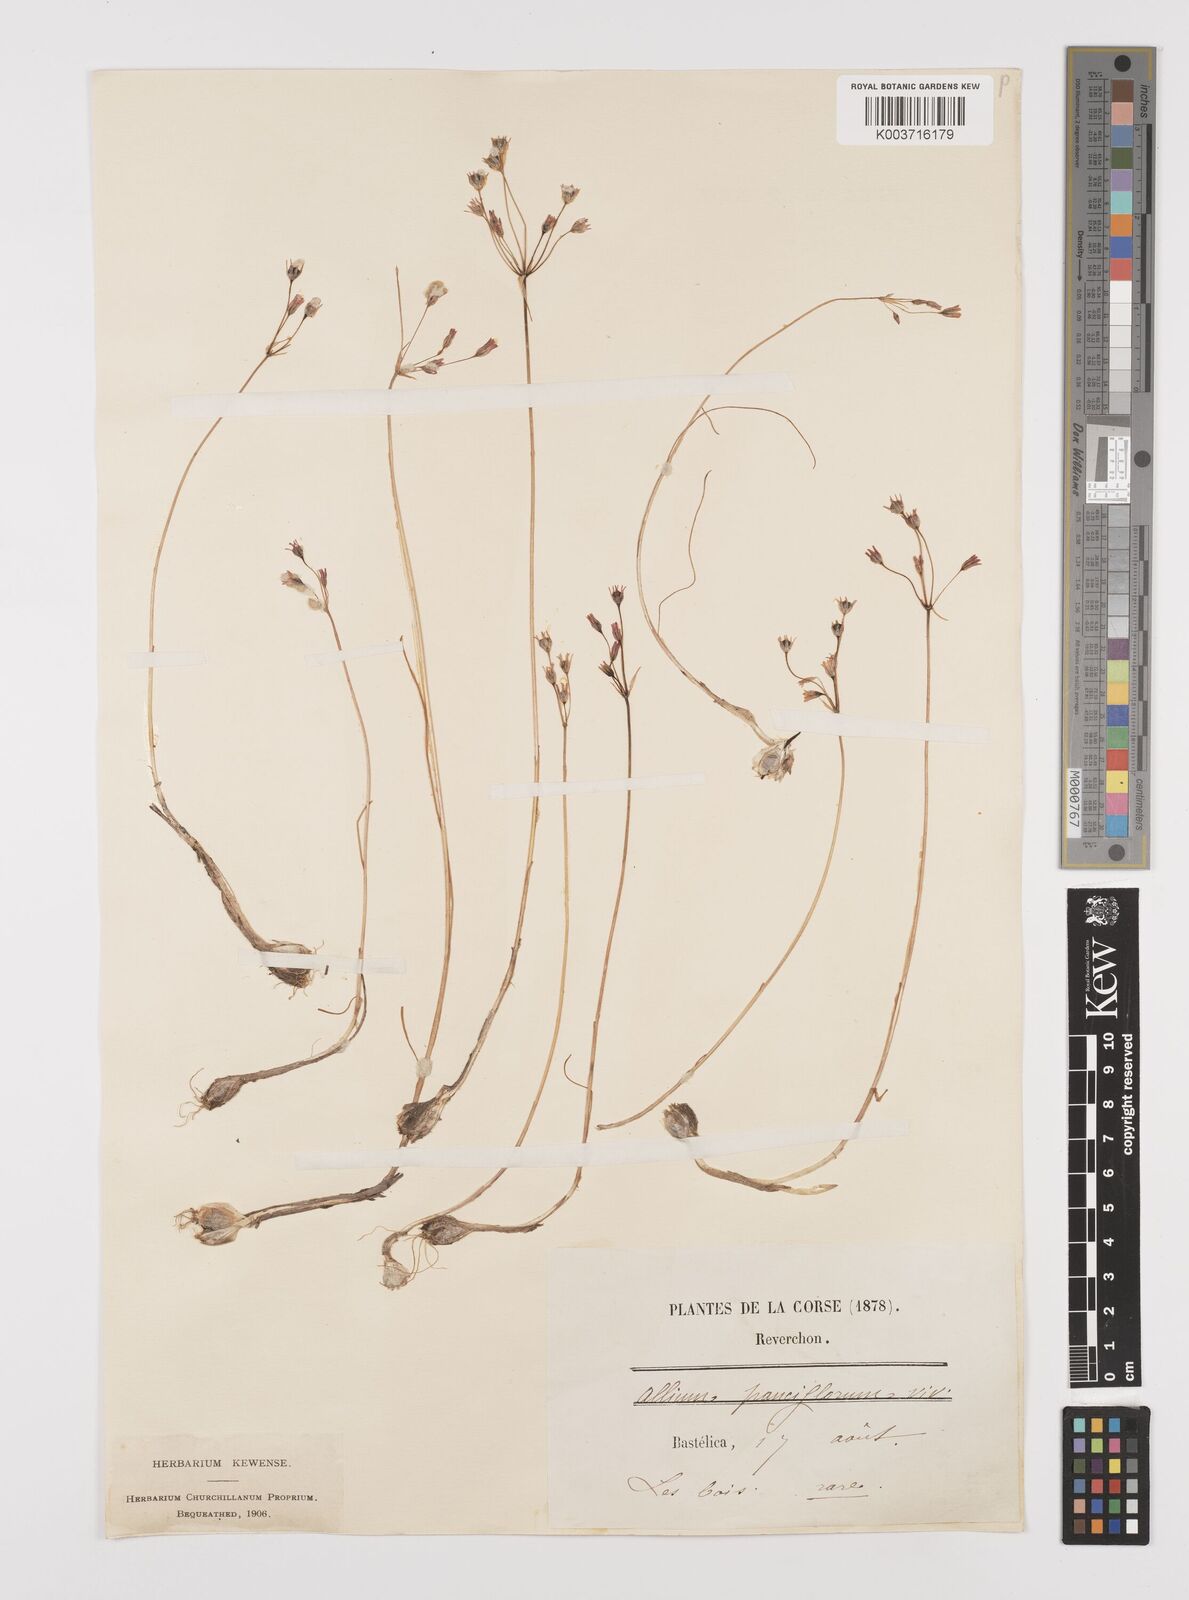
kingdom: Plantae
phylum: Tracheophyta
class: Liliopsida
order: Asparagales
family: Amaryllidaceae
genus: Allium
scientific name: Allium parciflorum
